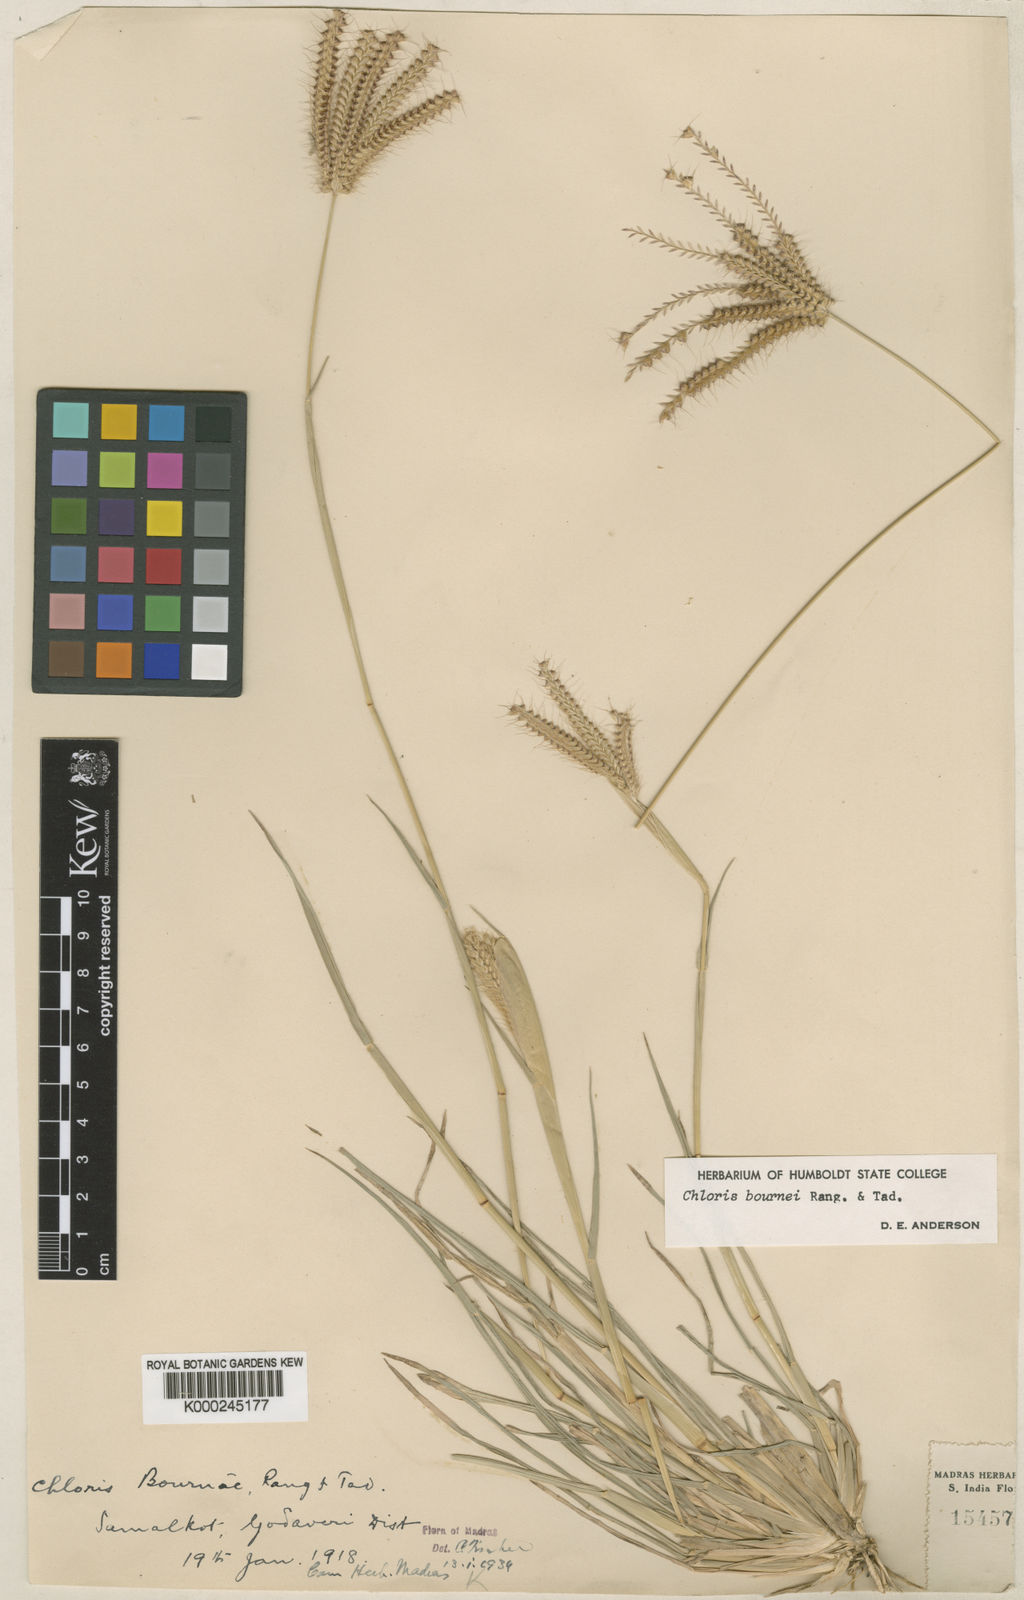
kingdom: Plantae
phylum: Tracheophyta
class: Liliopsida
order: Poales
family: Poaceae
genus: Chloris
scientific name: Chloris bournei
